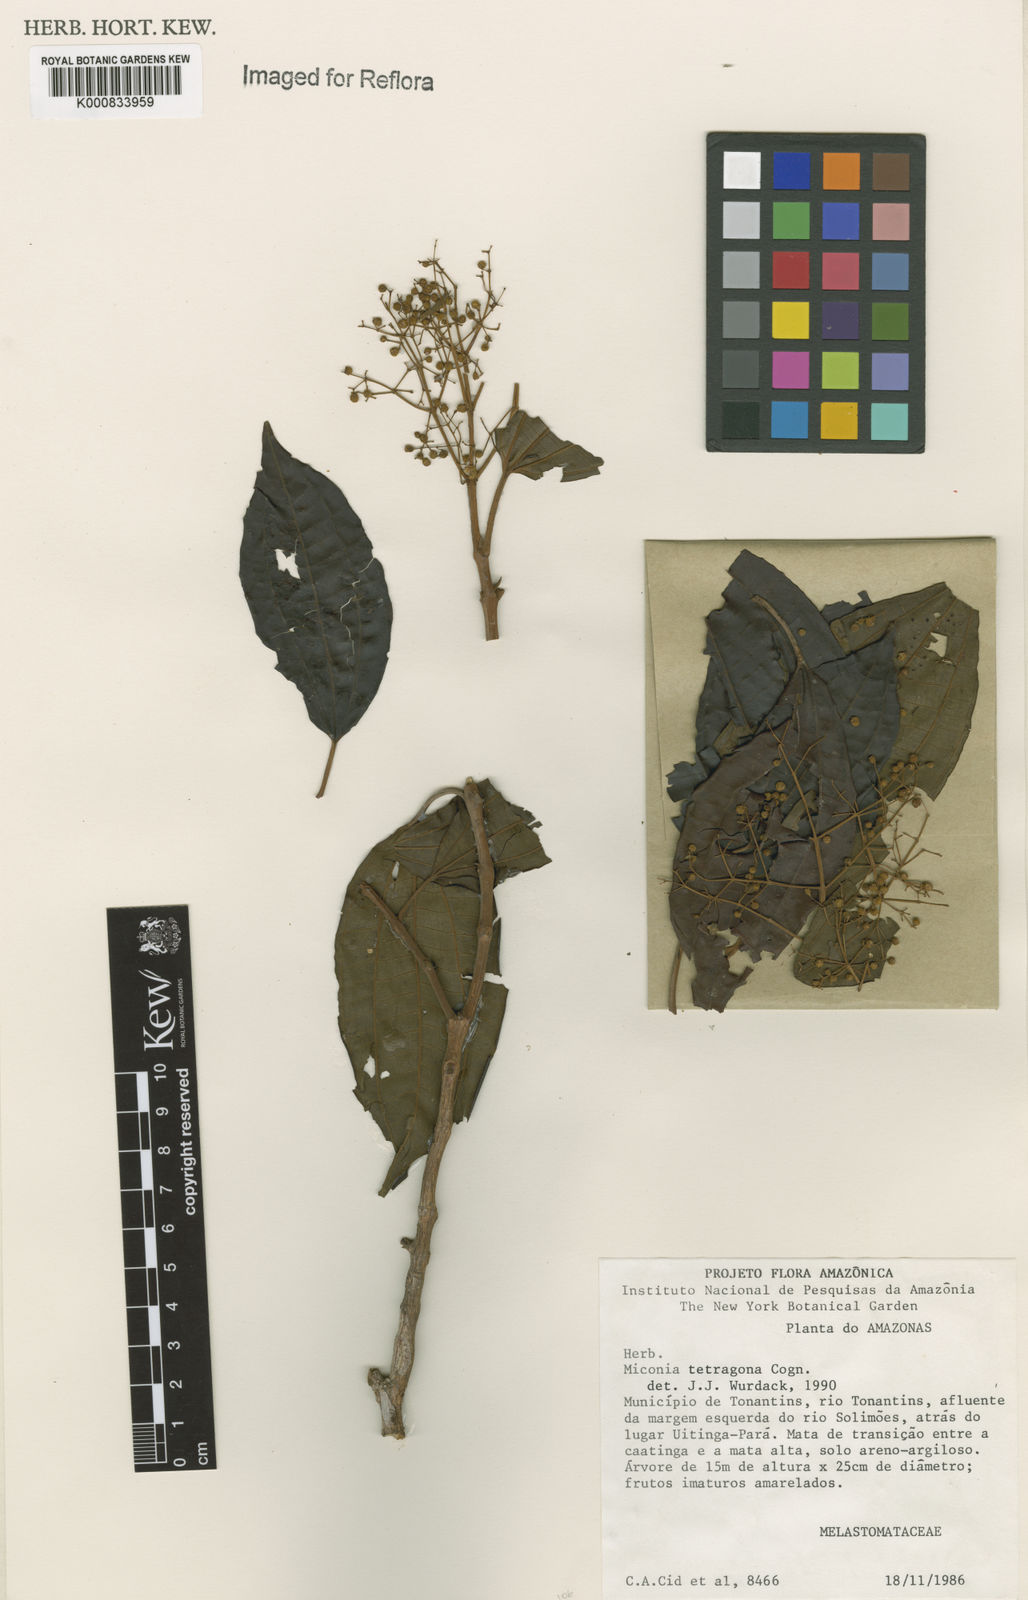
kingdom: Plantae
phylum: Tracheophyta
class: Magnoliopsida
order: Myrtales
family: Melastomataceae
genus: Miconia
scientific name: Miconia tetragona
